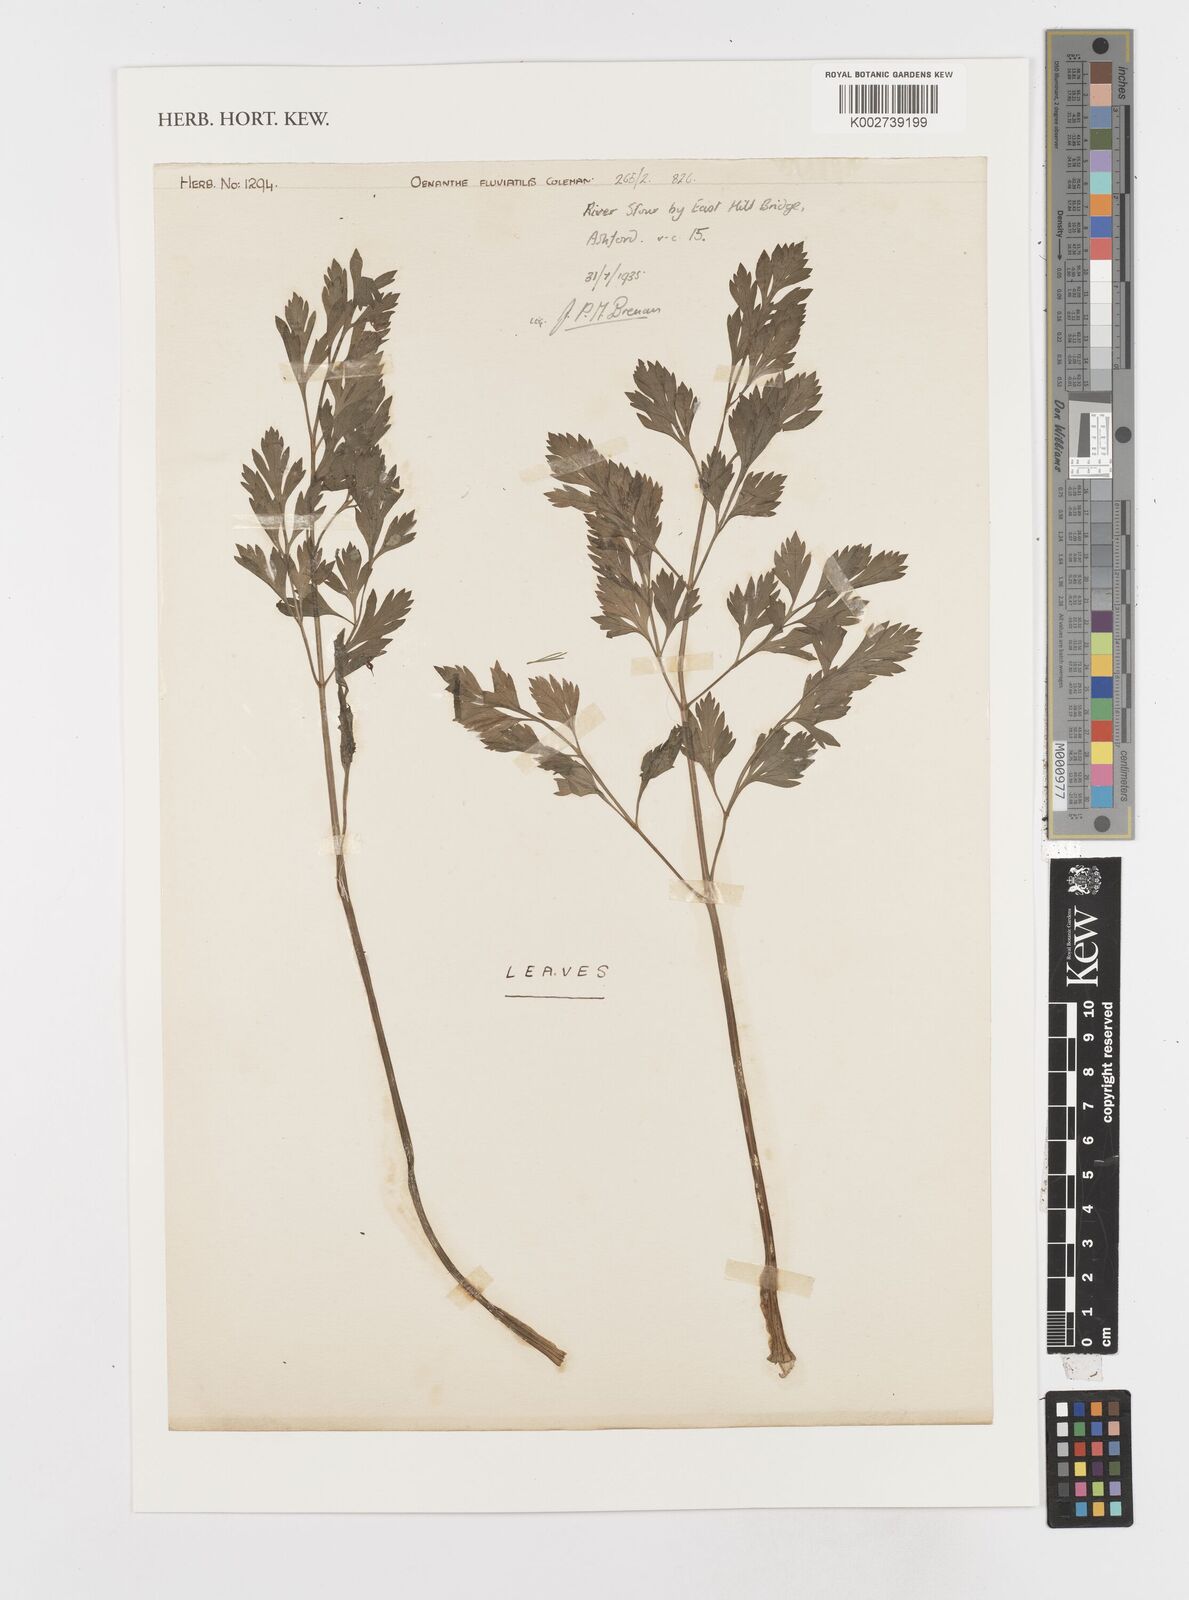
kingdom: Plantae
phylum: Tracheophyta
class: Magnoliopsida
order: Apiales
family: Apiaceae
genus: Oenanthe
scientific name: Oenanthe fluviatilis
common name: River water-dropwort
